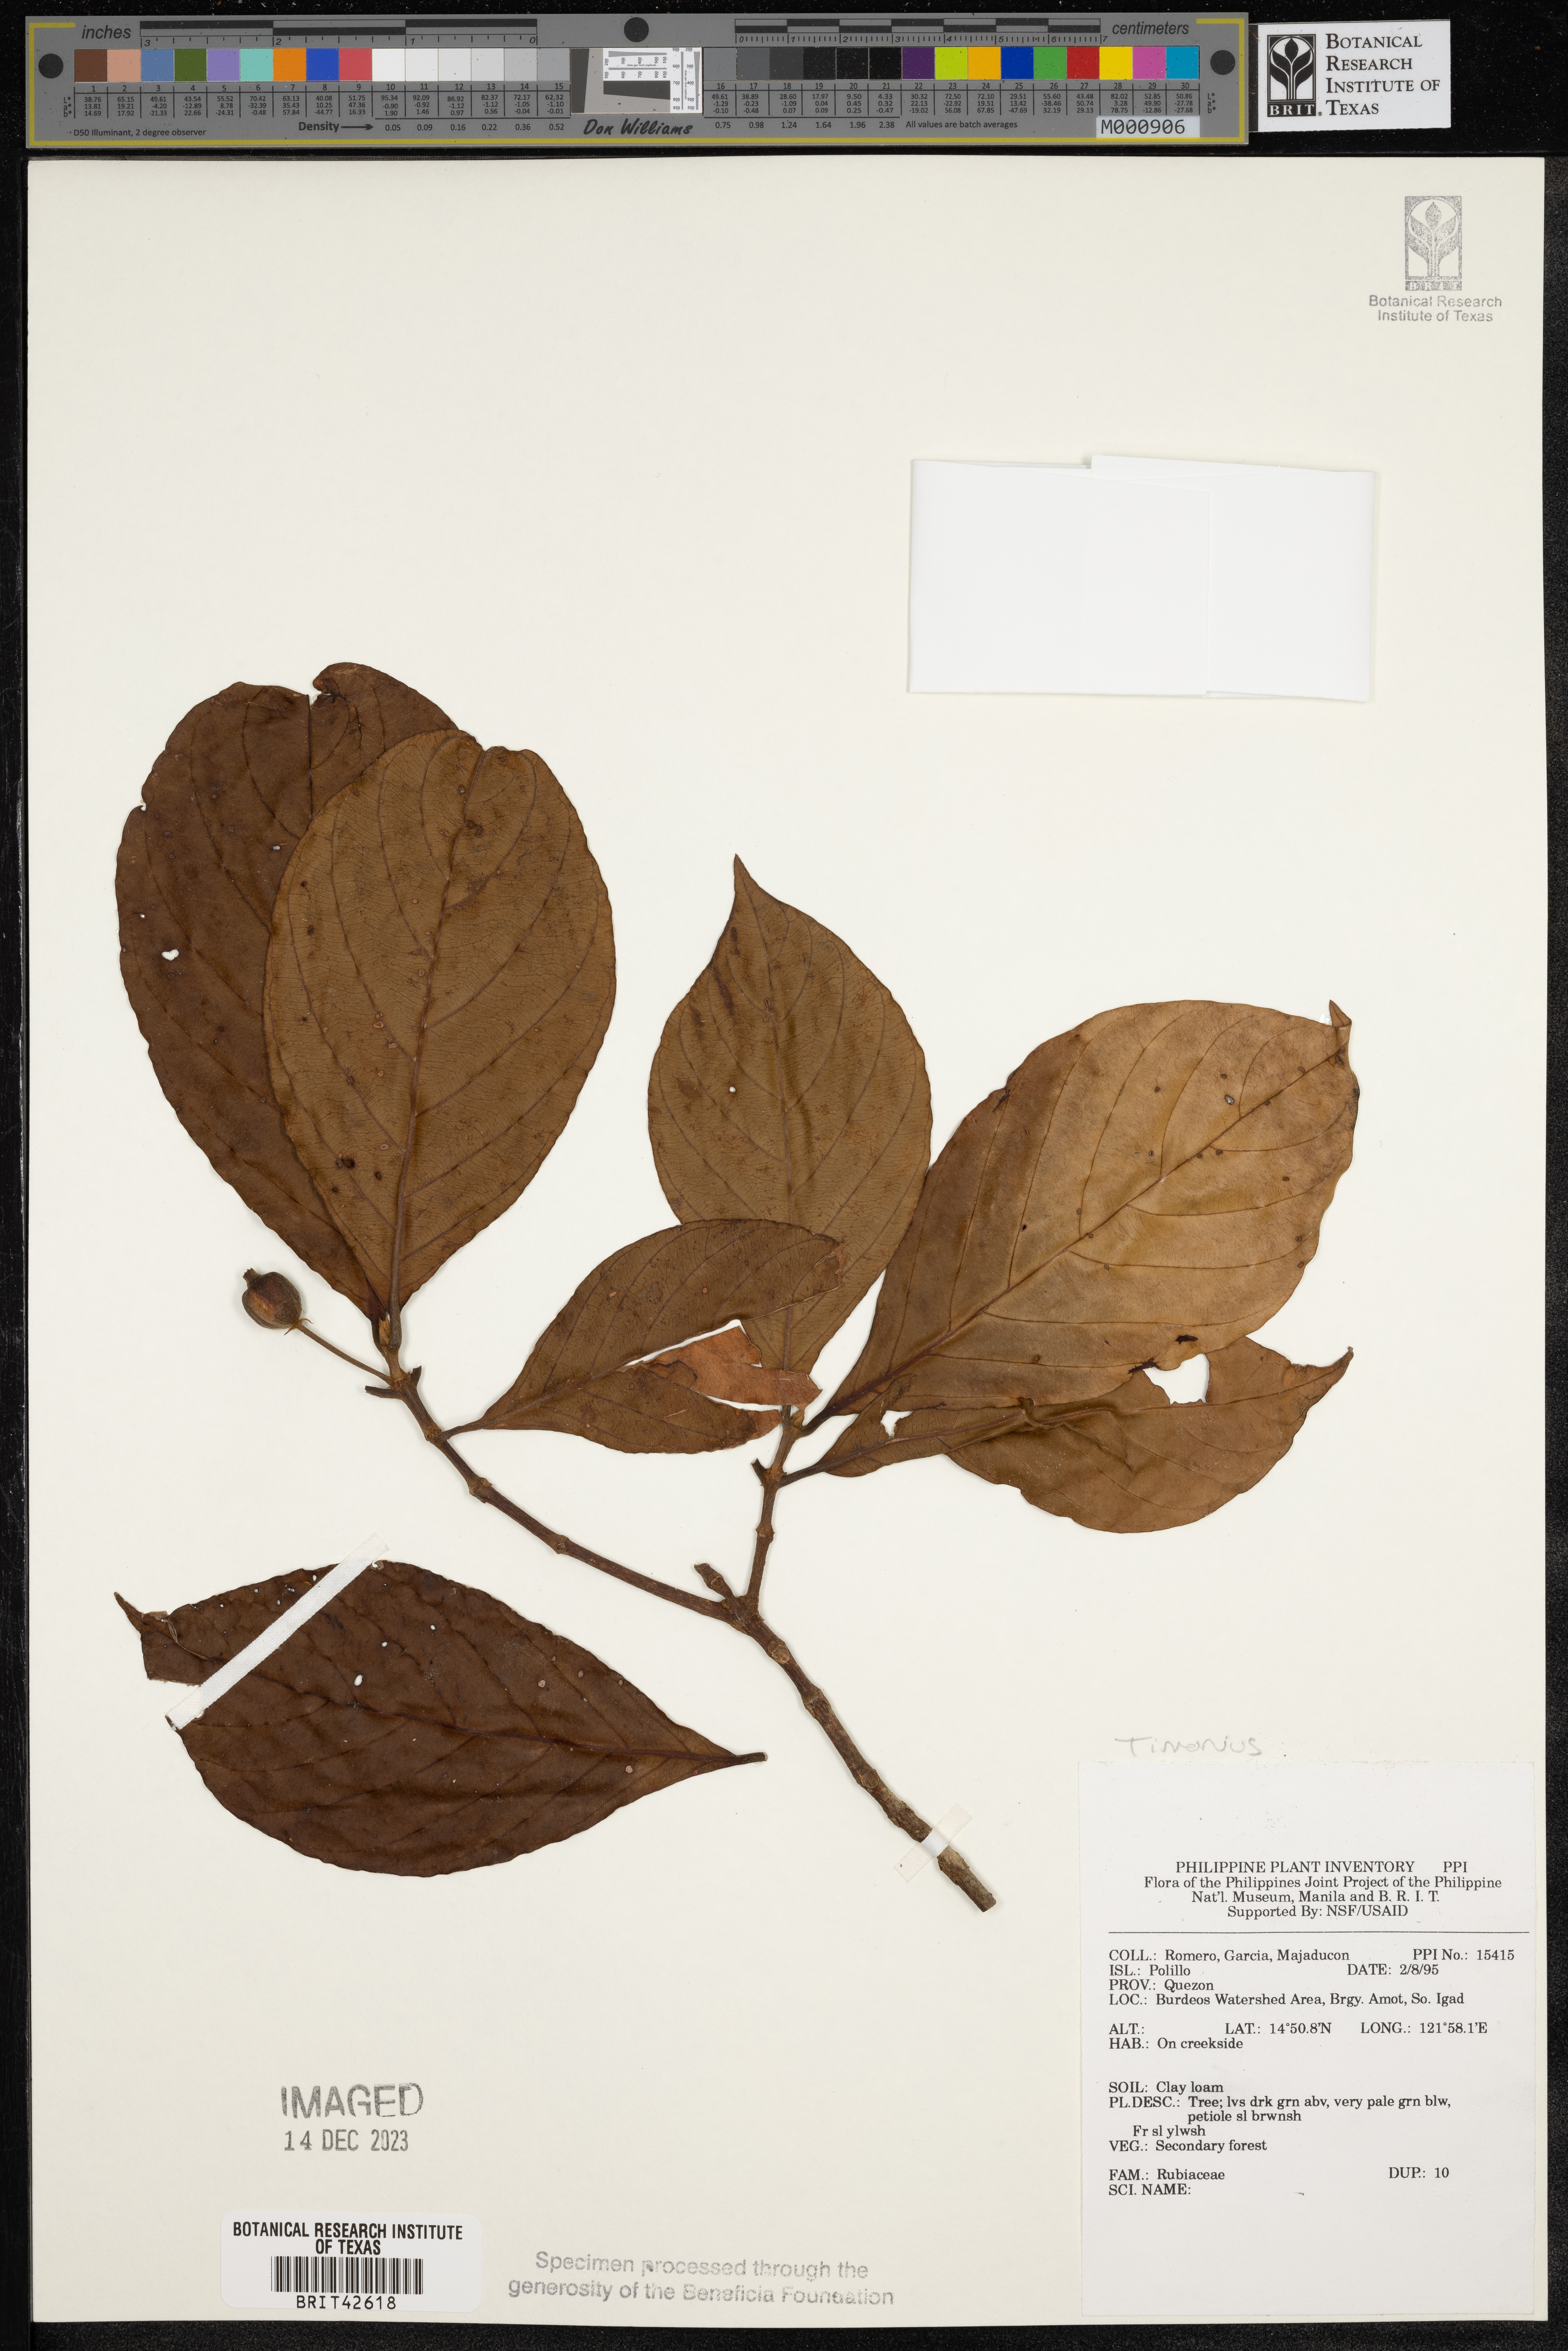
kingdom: Plantae
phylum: Tracheophyta
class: Magnoliopsida
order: Gentianales
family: Rubiaceae
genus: Timonius
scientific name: Timonius
